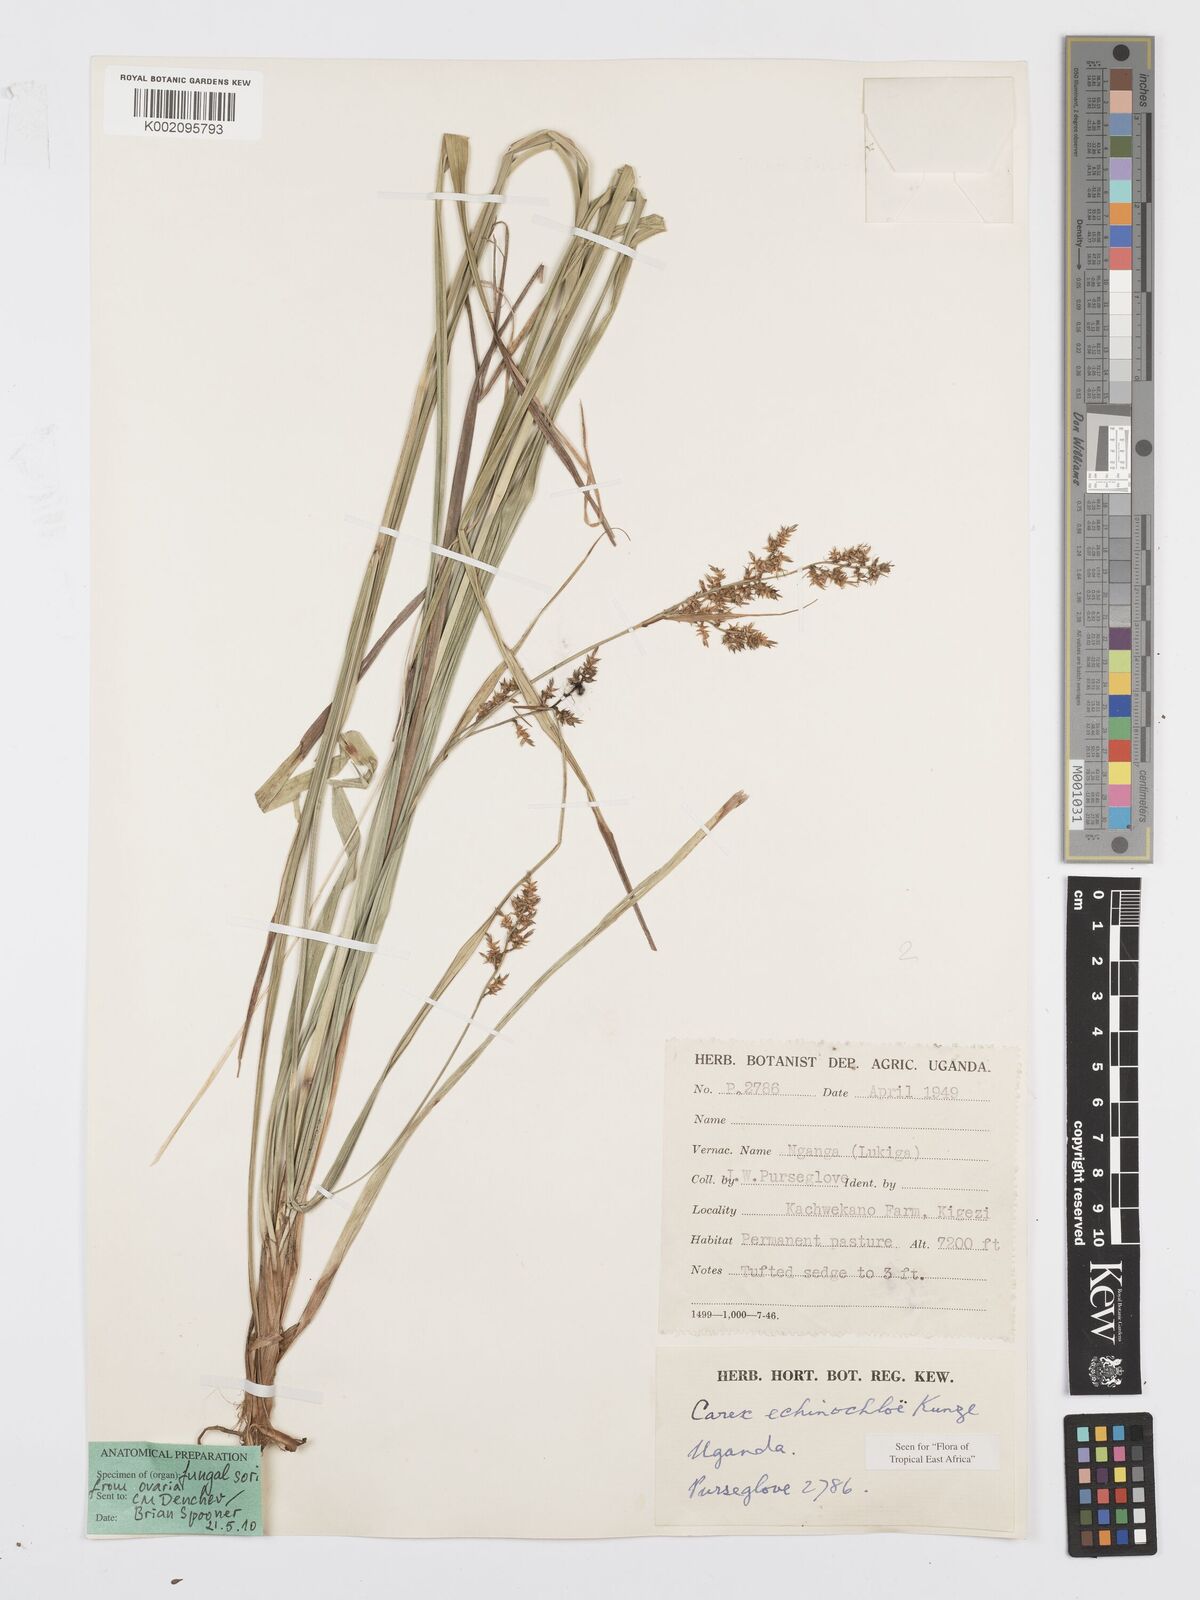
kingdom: Plantae
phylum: Tracheophyta
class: Liliopsida
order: Poales
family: Cyperaceae
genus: Carex
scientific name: Carex echinochloe
